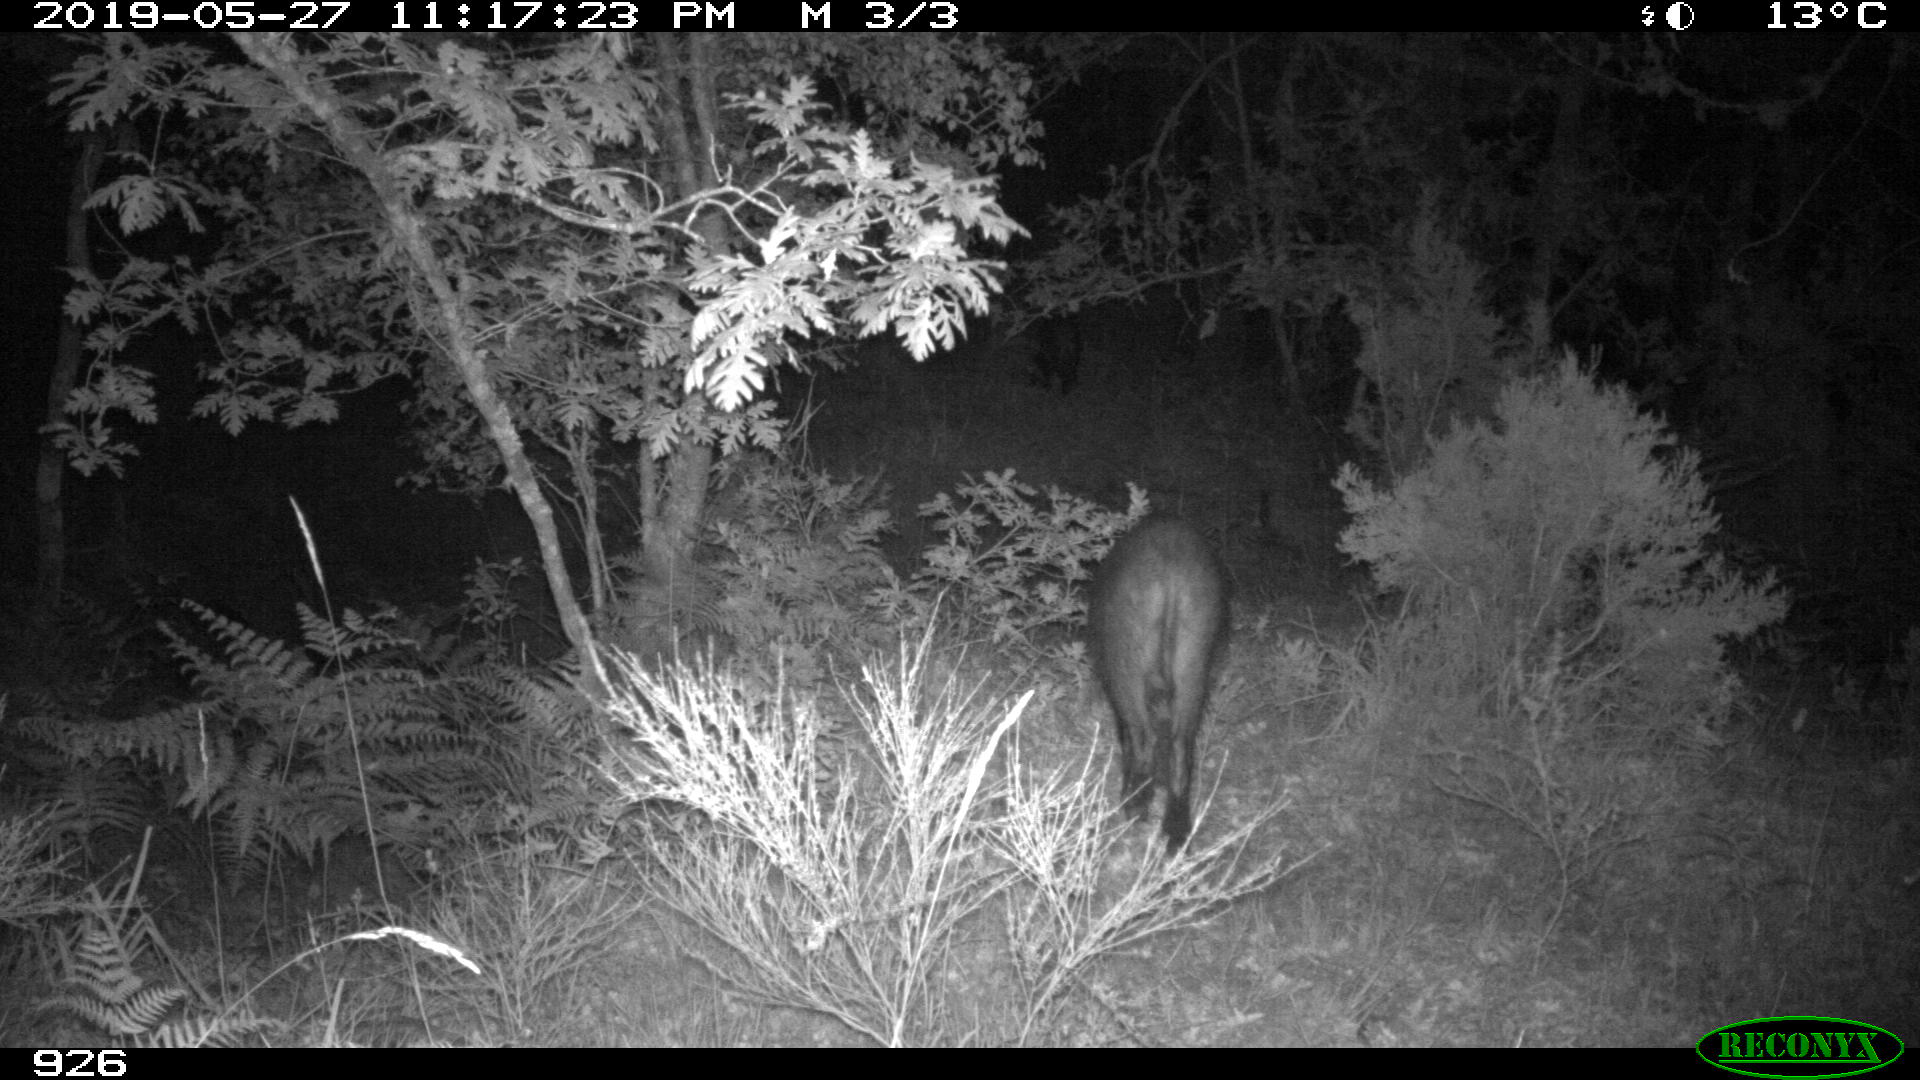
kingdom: Animalia
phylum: Chordata
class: Mammalia
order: Artiodactyla
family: Suidae
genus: Sus
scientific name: Sus scrofa
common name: Wild boar
